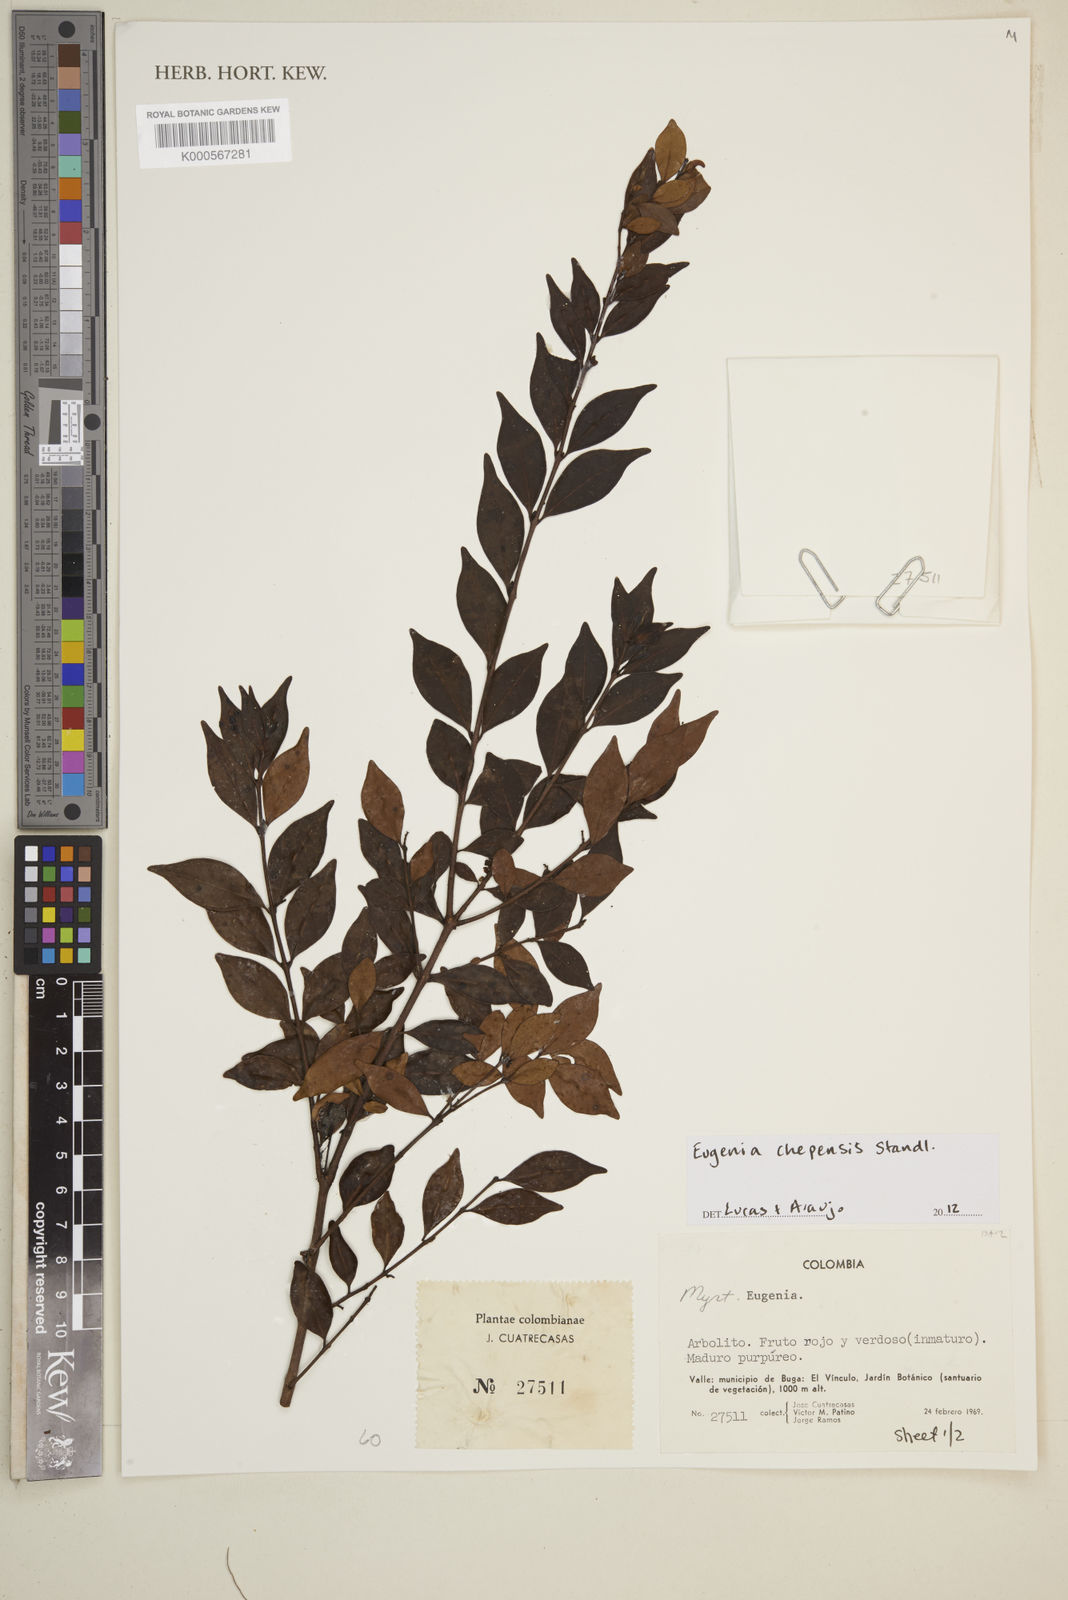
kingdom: Plantae
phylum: Tracheophyta
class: Magnoliopsida
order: Myrtales
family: Myrtaceae
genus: Eugenia
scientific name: Eugenia chepensis
